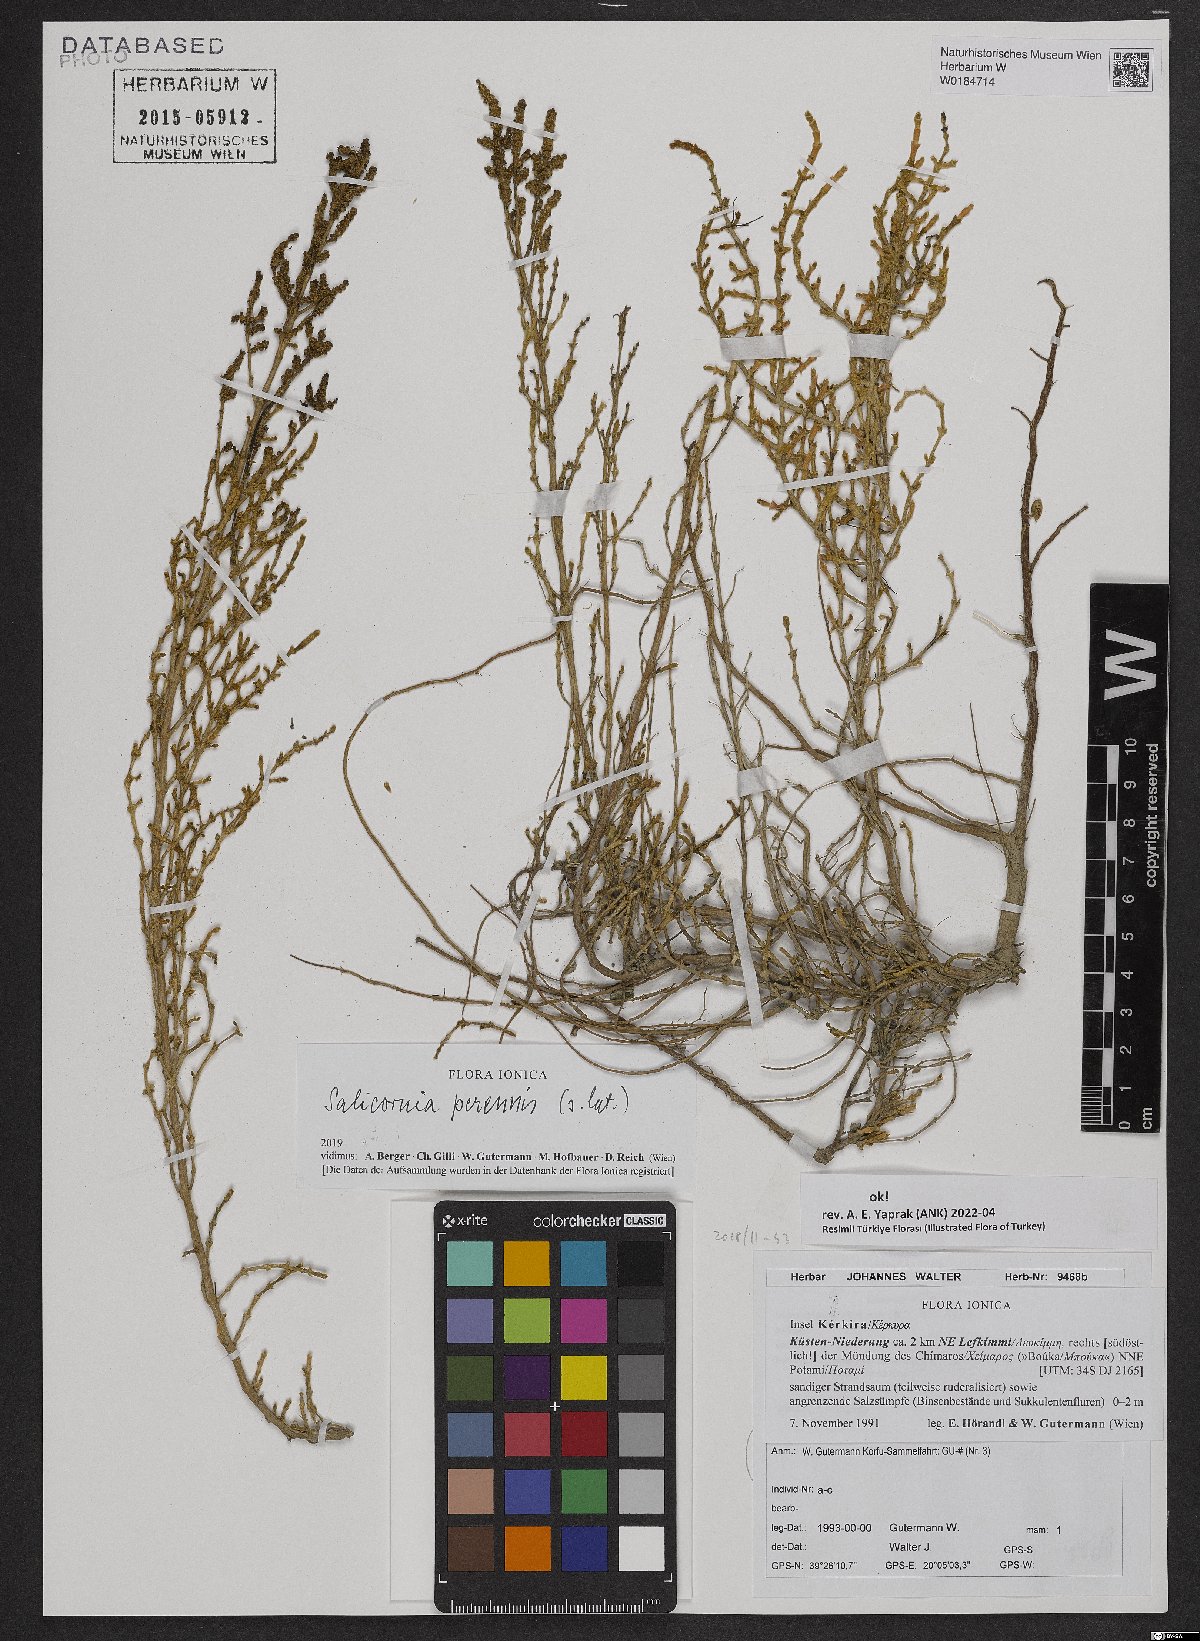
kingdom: Plantae
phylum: Tracheophyta
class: Magnoliopsida
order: Caryophyllales
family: Amaranthaceae
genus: Salicornia
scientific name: Salicornia obclavata
